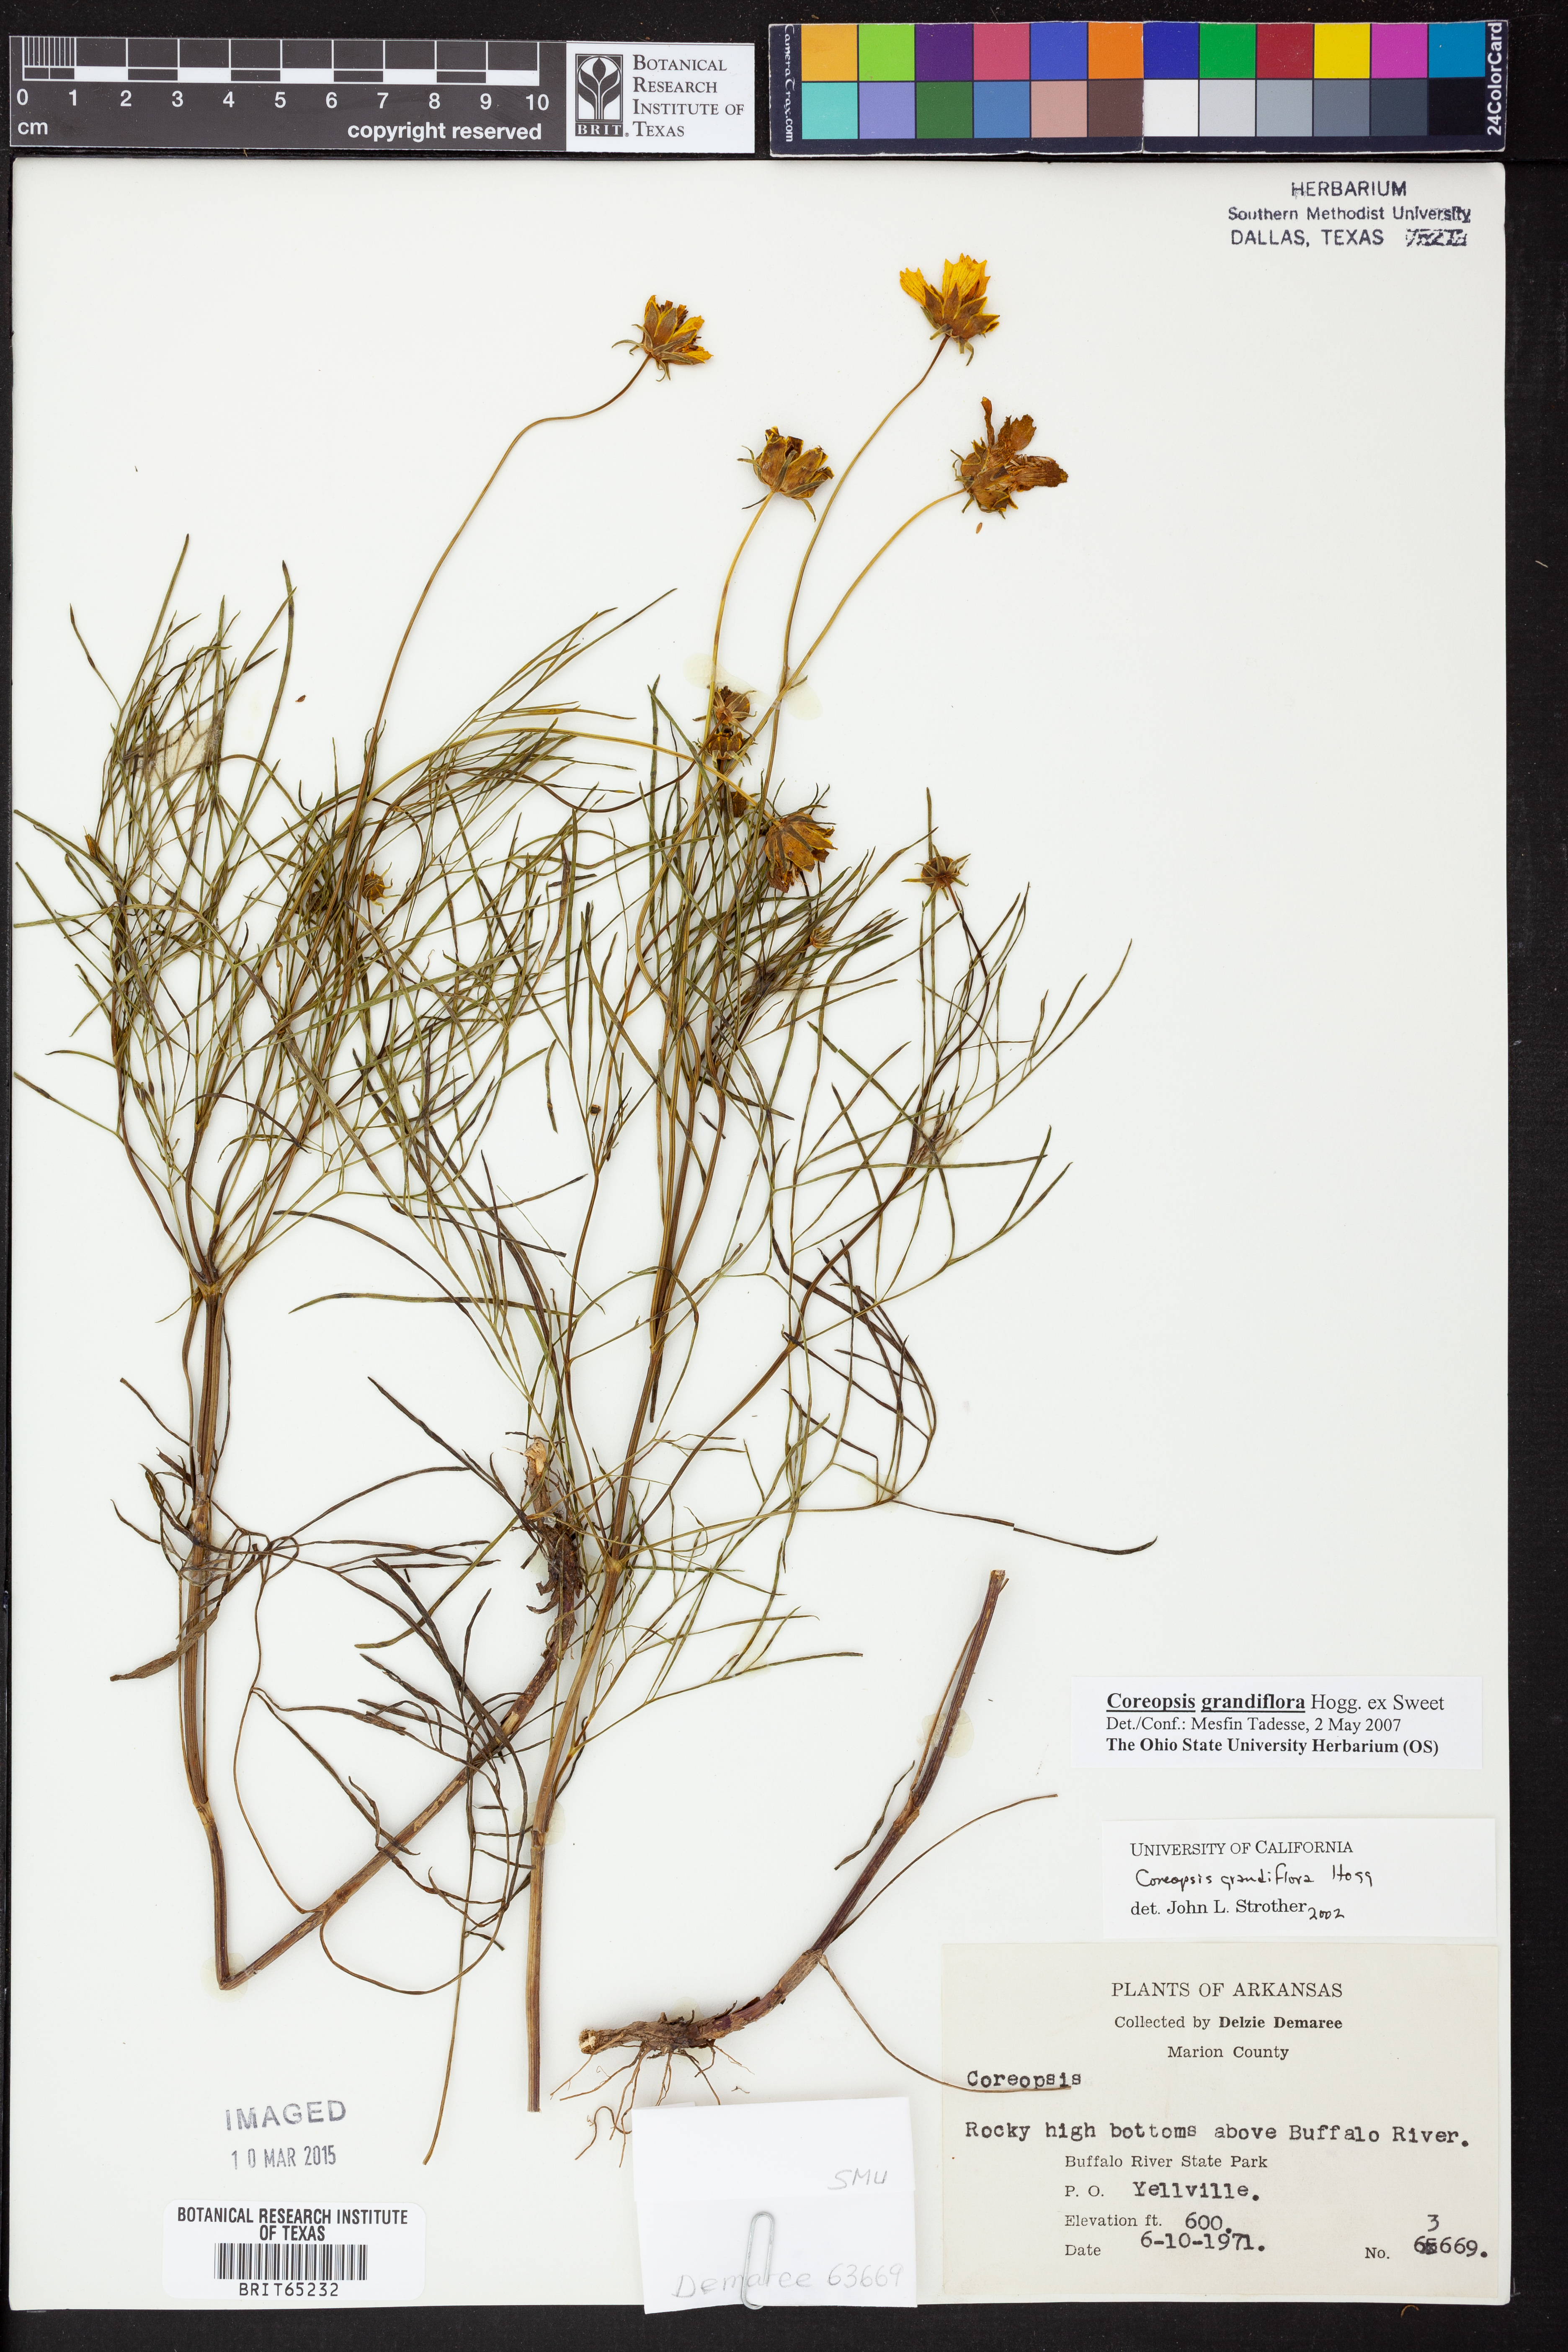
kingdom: Plantae
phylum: Tracheophyta
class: Magnoliopsida
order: Asterales
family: Asteraceae
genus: Coreopsis
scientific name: Coreopsis grandiflora
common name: Large-flowered tickseed
